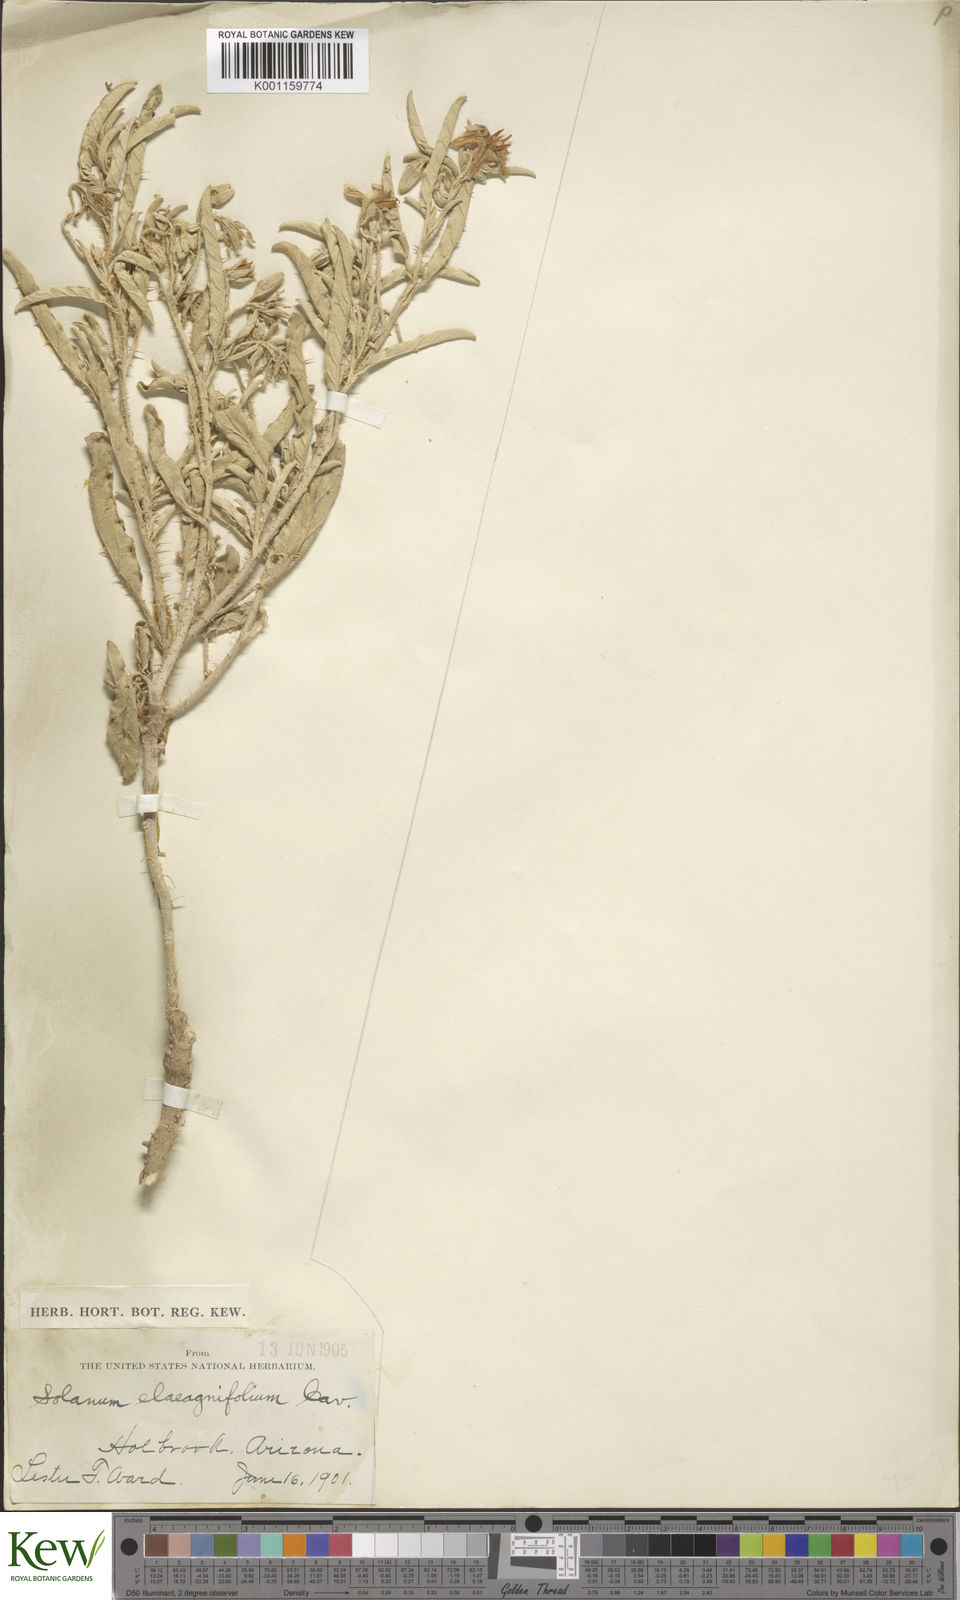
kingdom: Plantae
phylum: Tracheophyta
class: Magnoliopsida
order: Solanales
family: Solanaceae
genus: Solanum
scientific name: Solanum
